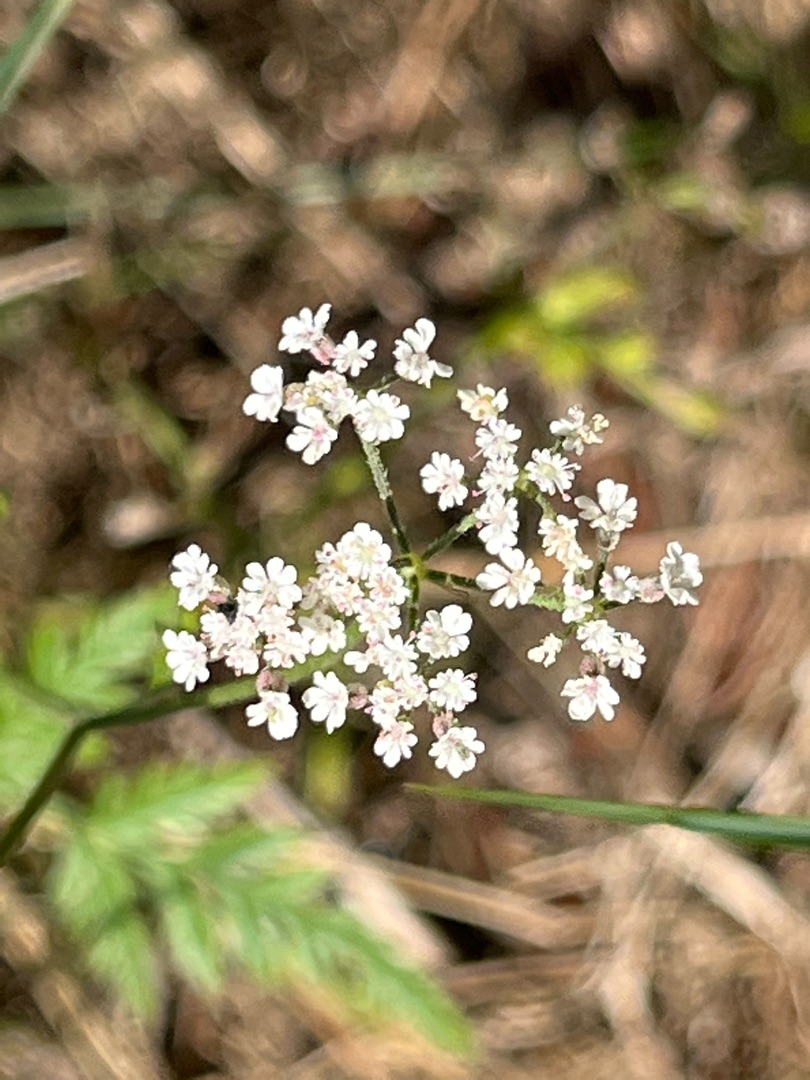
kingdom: Plantae
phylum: Tracheophyta
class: Magnoliopsida
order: Apiales
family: Apiaceae
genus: Torilis
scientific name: Torilis japonica
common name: Hvas randfrø
